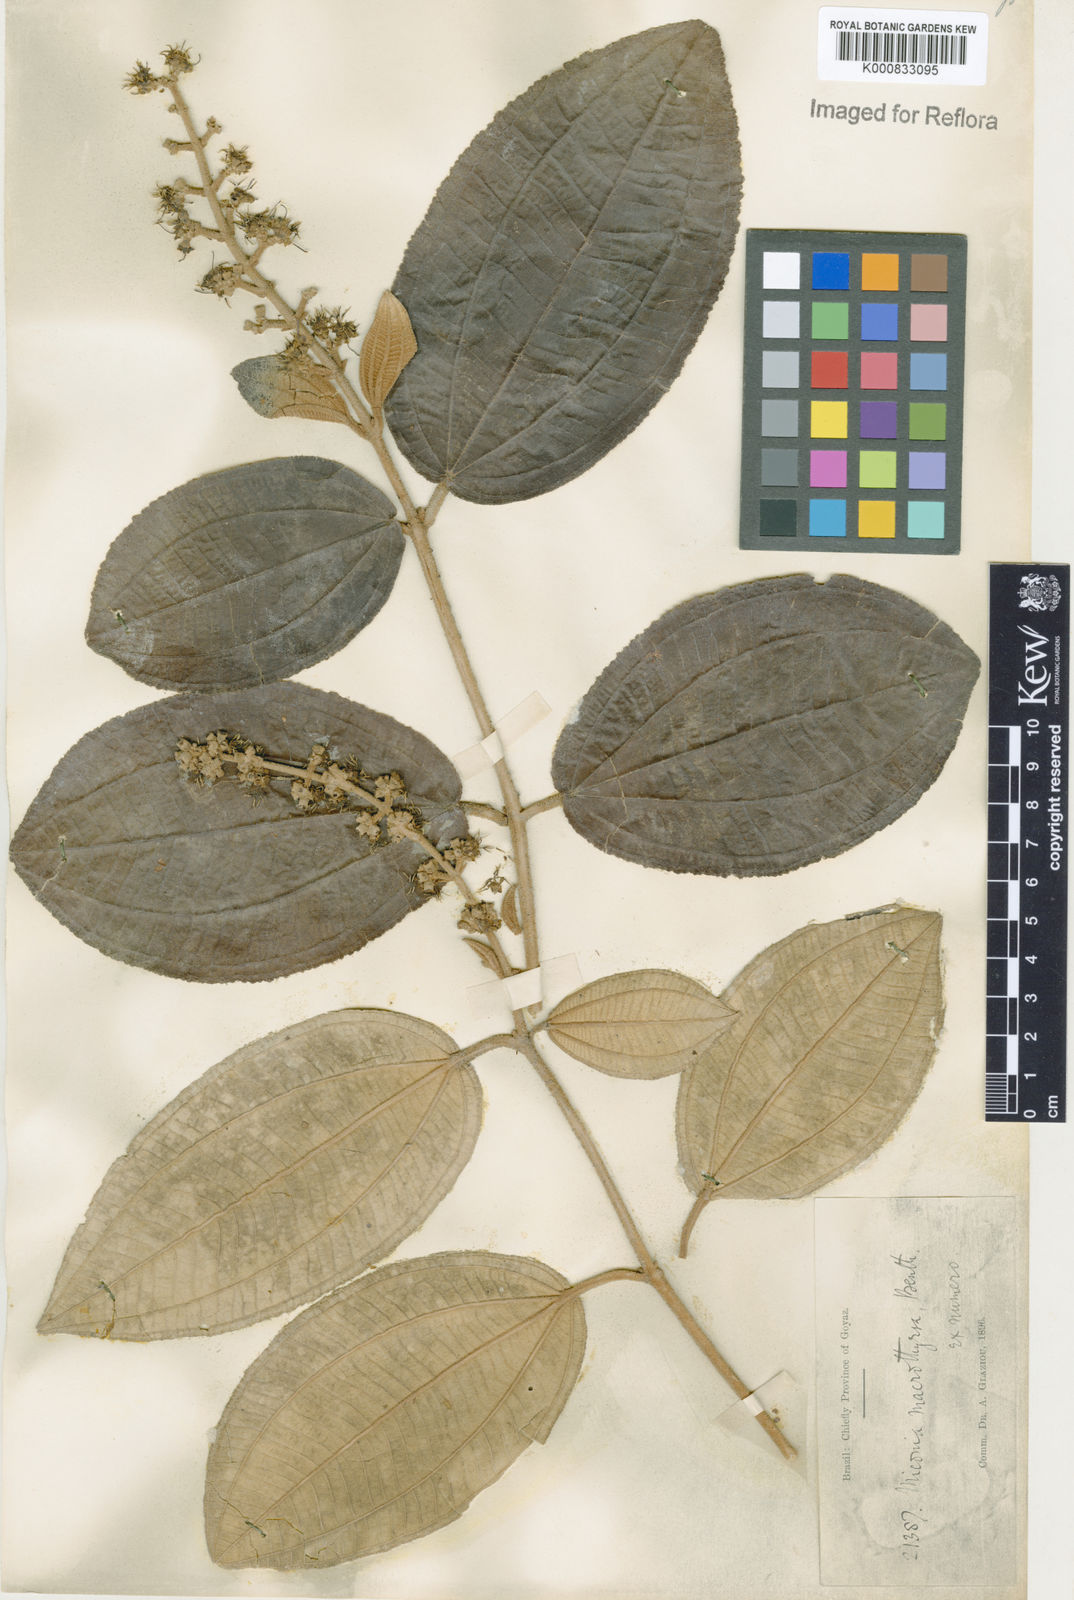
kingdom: Plantae
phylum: Tracheophyta
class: Magnoliopsida
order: Myrtales
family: Melastomataceae
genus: Miconia
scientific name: Miconia macrothyrsa
